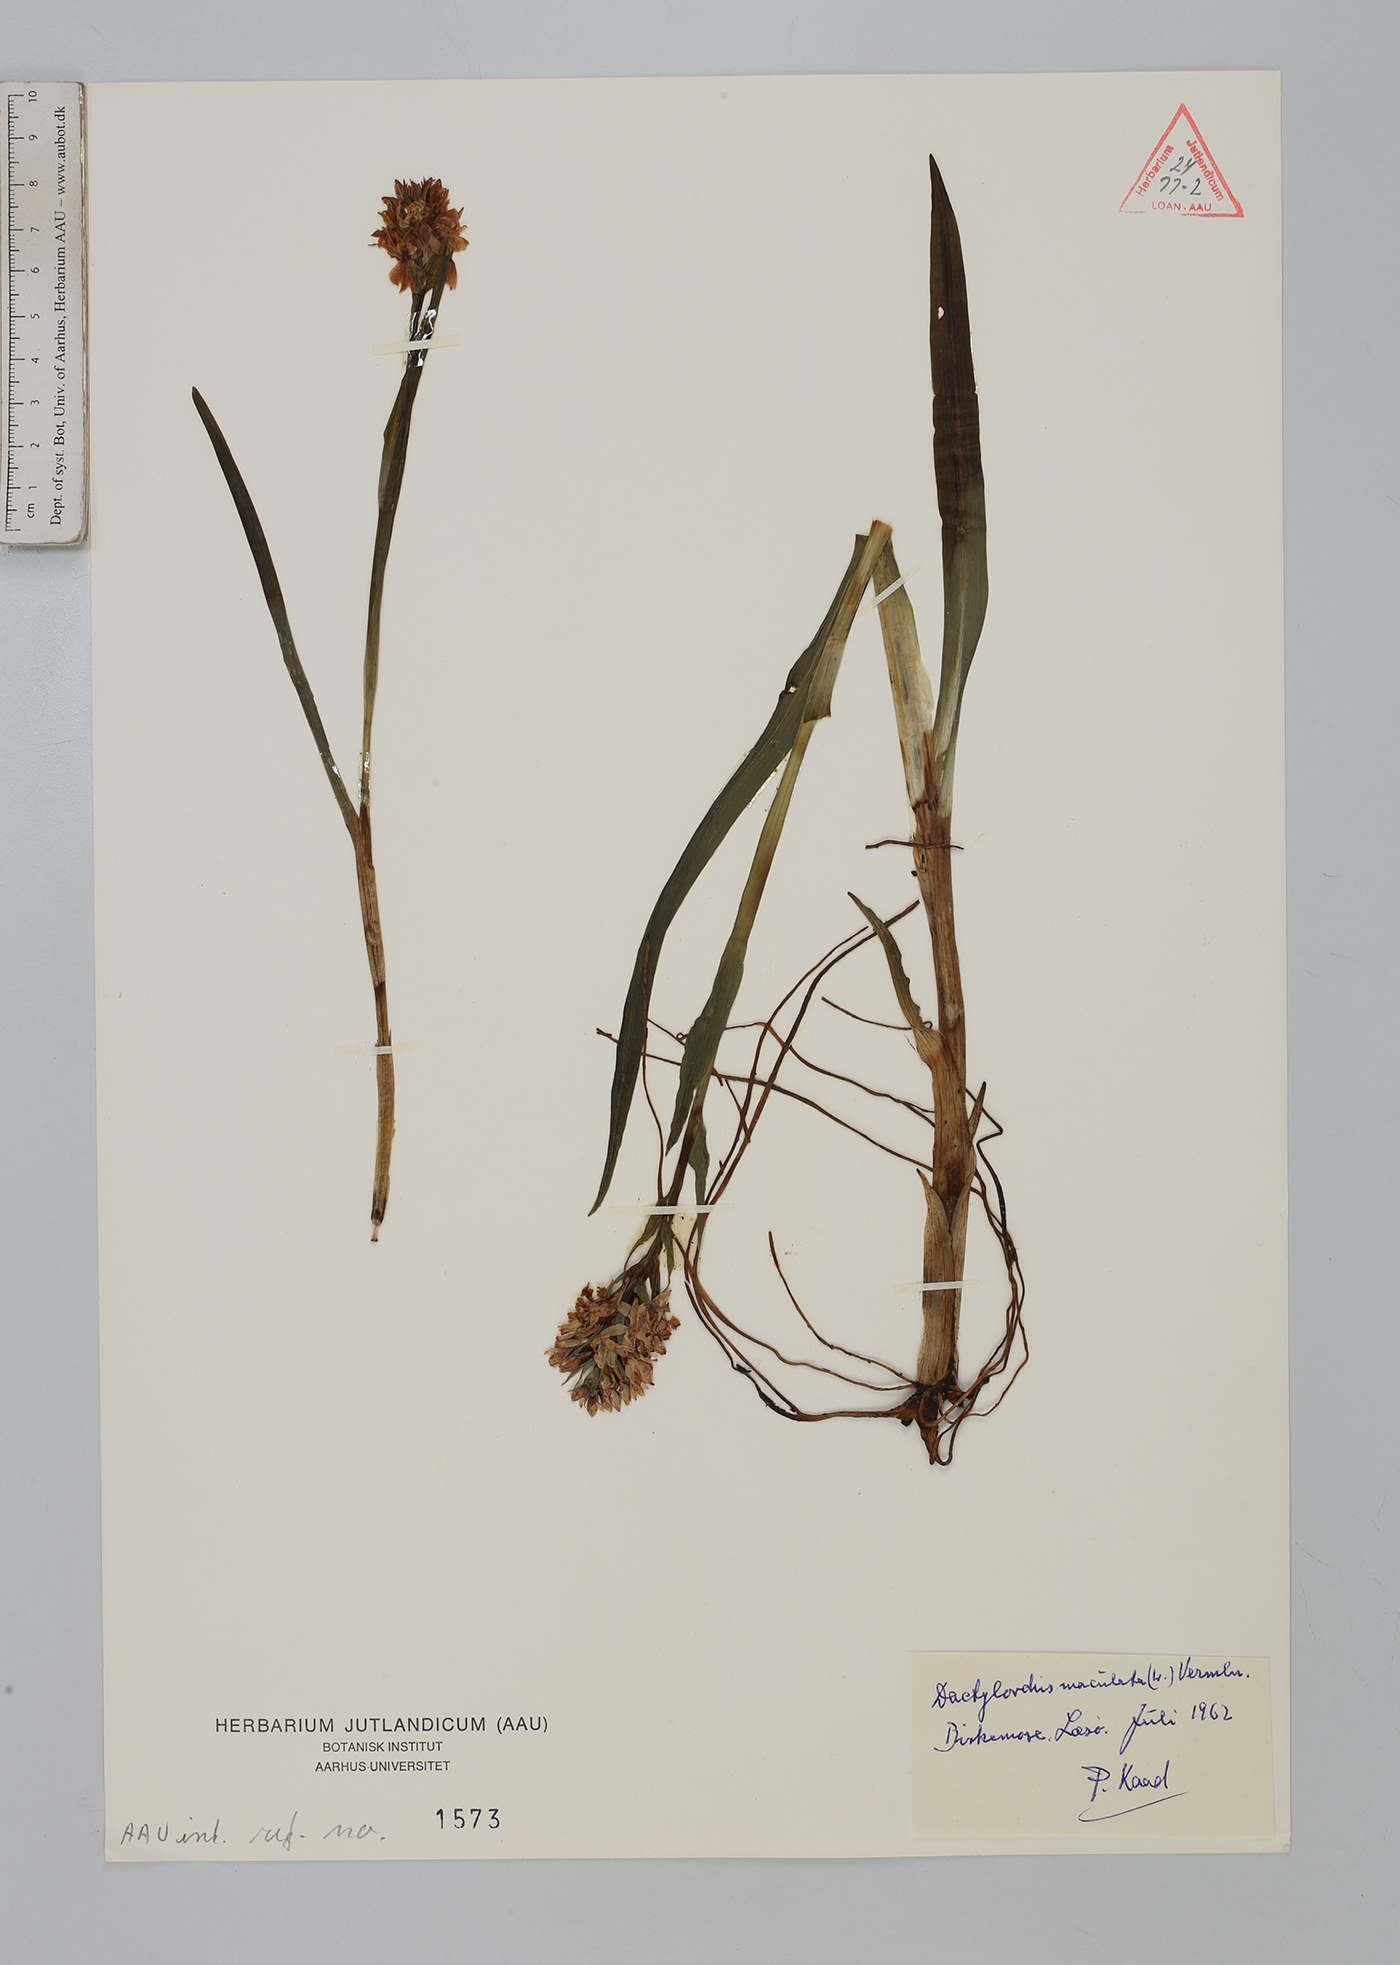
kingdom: Plantae
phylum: Tracheophyta
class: Liliopsida
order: Asparagales
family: Orchidaceae
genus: Dactylorhiza
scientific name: Dactylorhiza maculata
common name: Heath spotted-orchid
